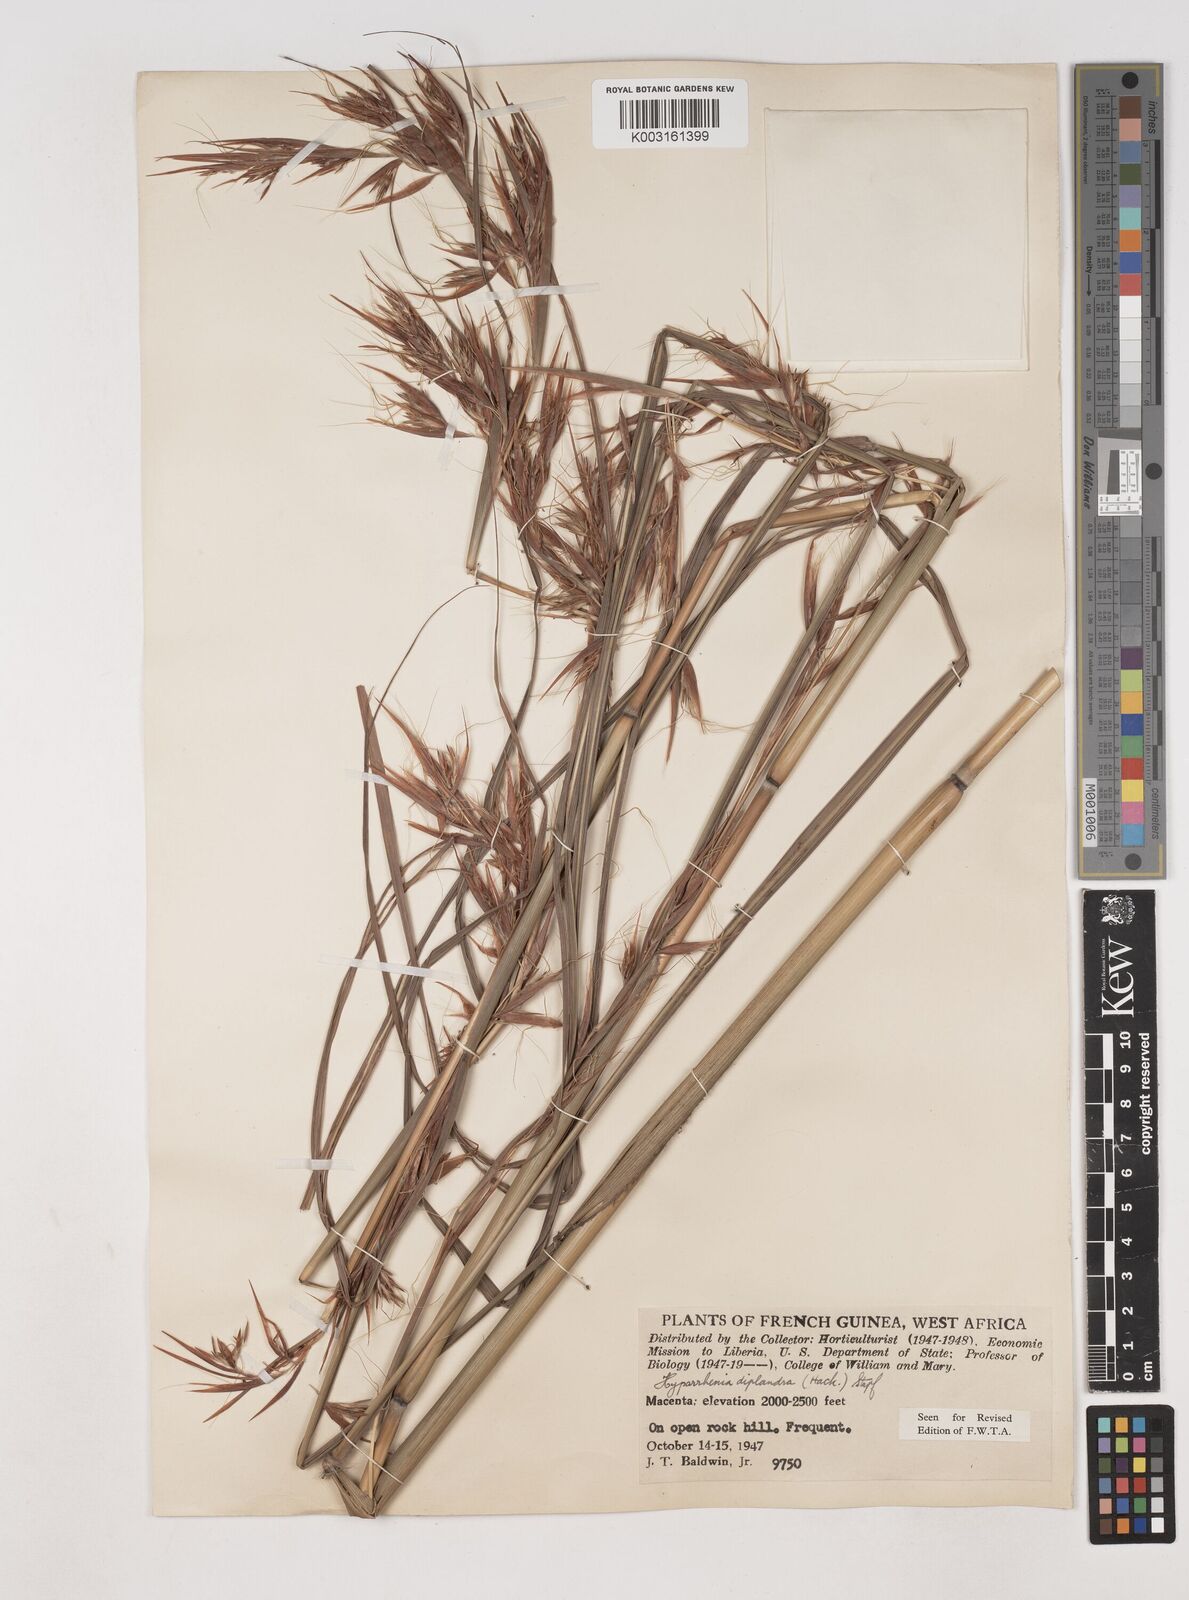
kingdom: Plantae
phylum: Tracheophyta
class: Liliopsida
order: Poales
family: Poaceae
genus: Hyparrhenia
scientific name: Hyparrhenia diplandra
